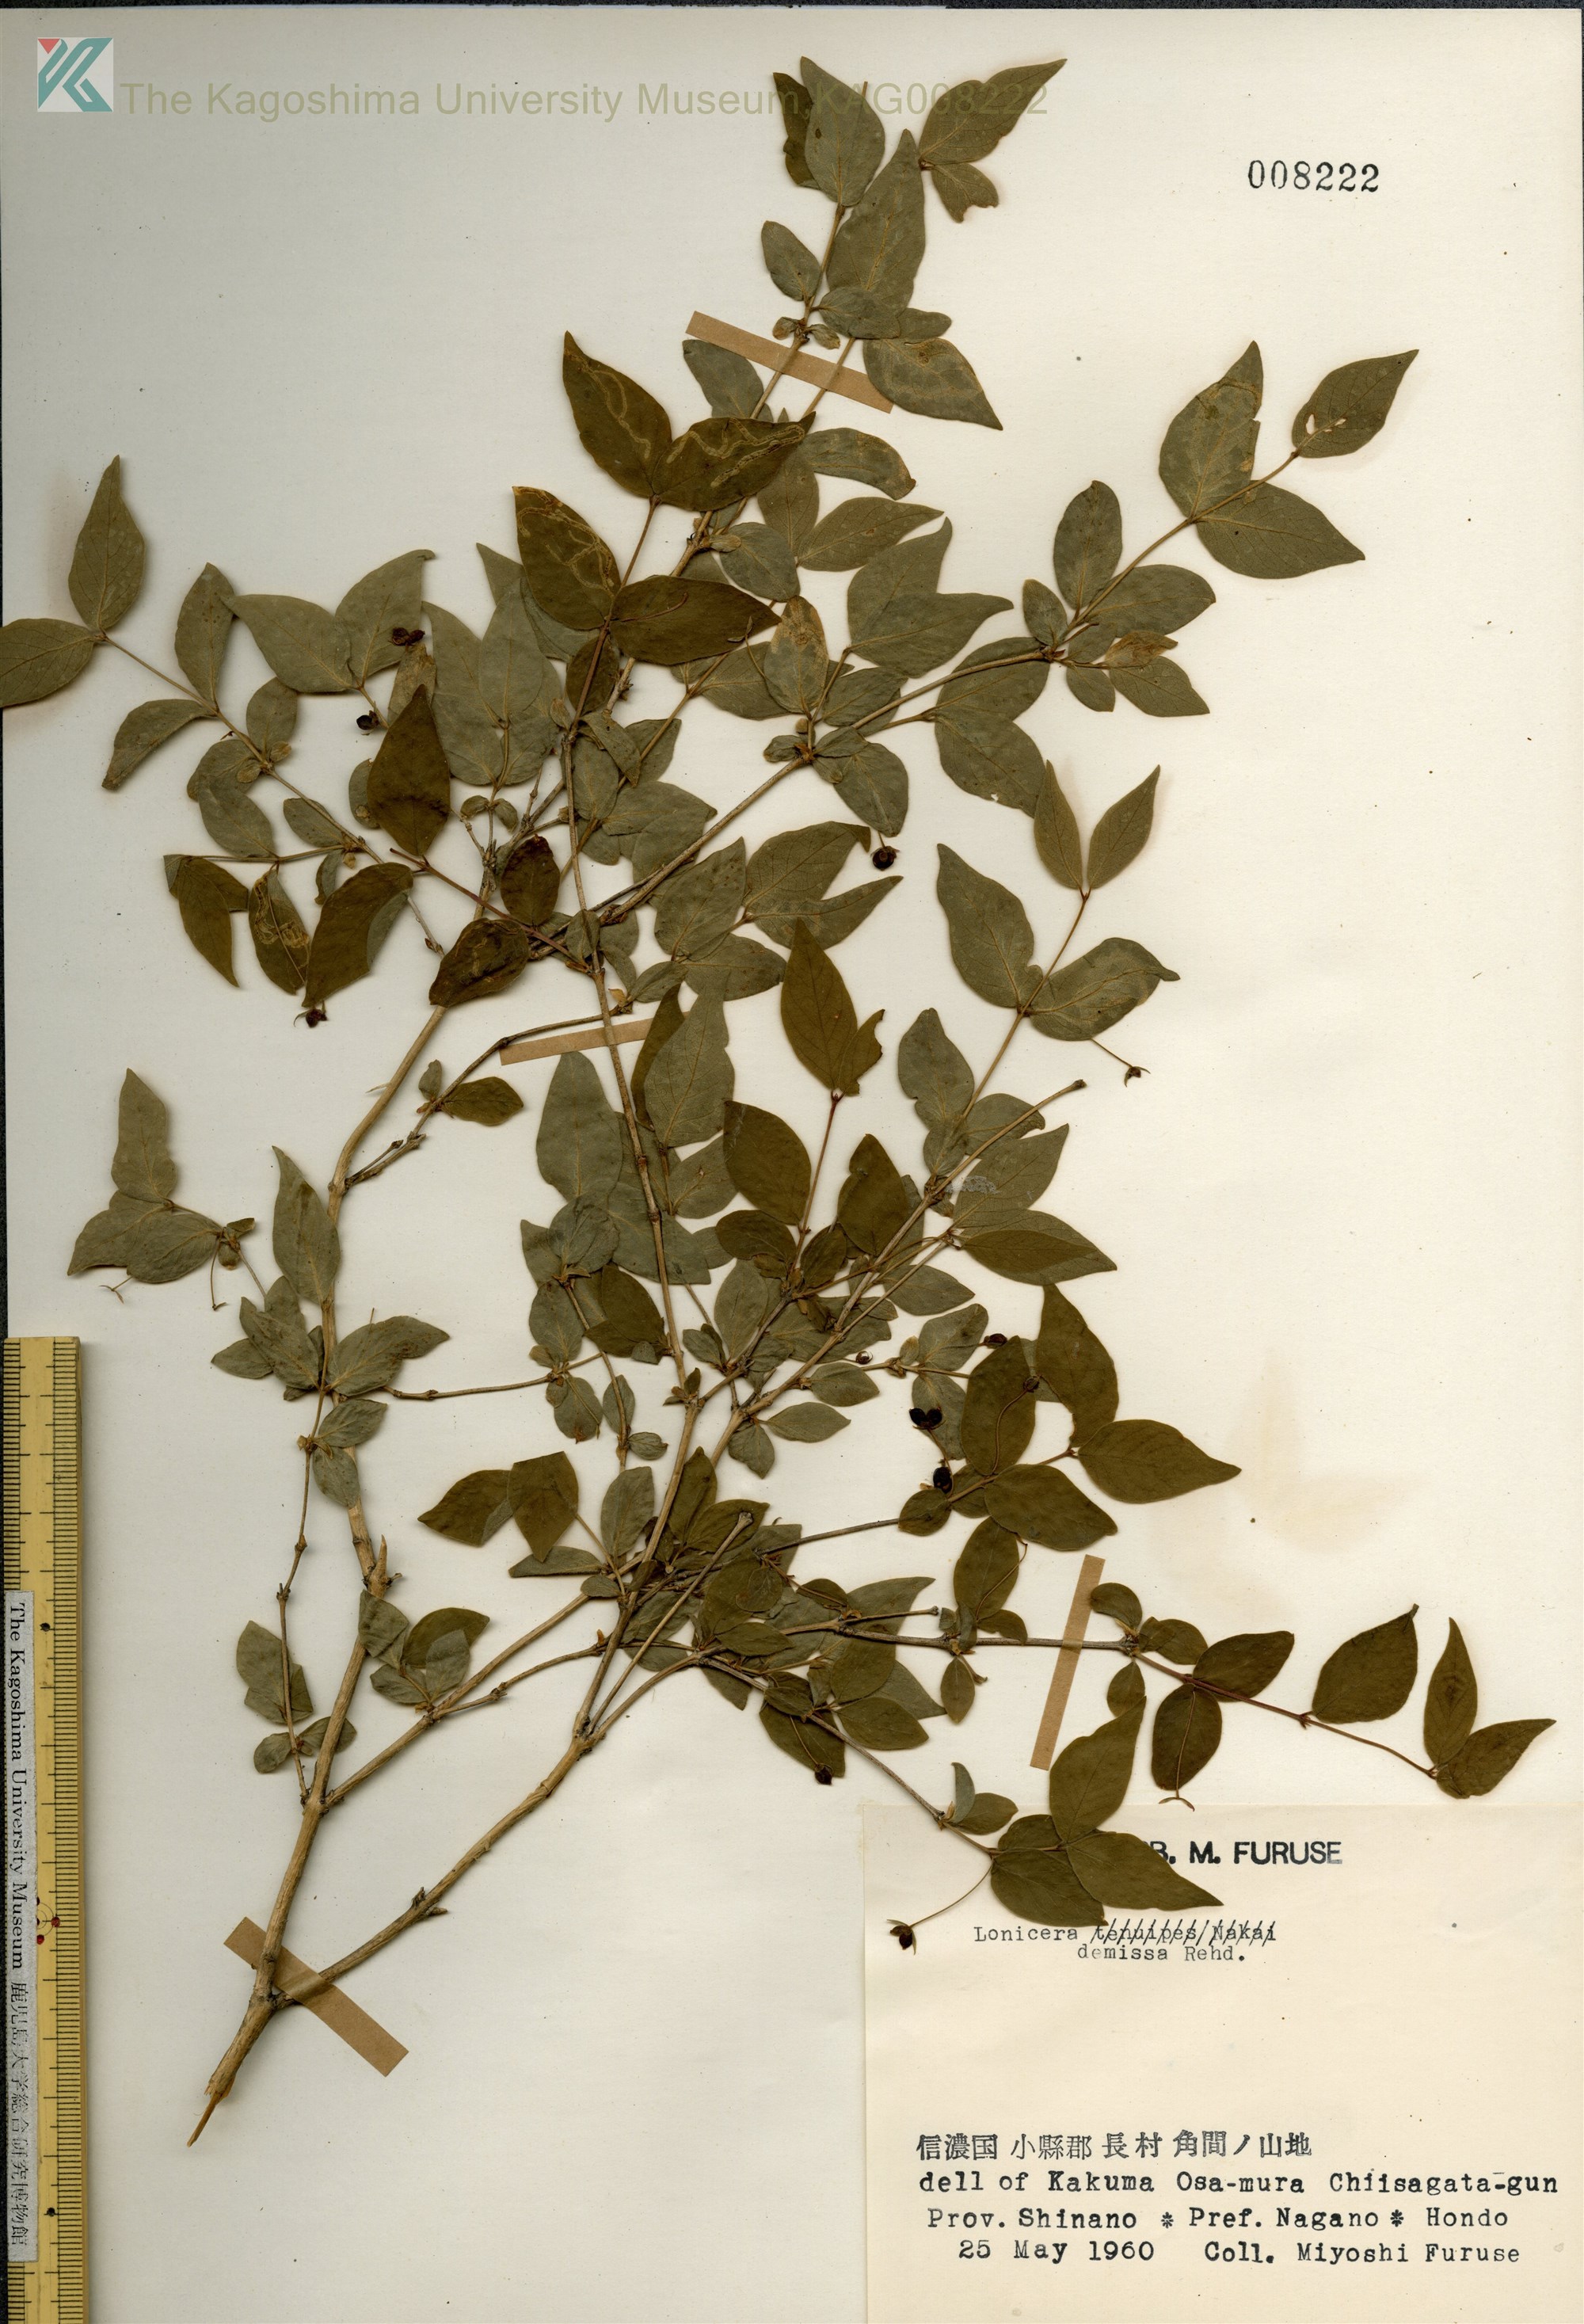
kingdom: Plantae
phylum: Tracheophyta
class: Magnoliopsida
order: Dipsacales
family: Caprifoliaceae
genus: Lonicera
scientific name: Lonicera ramosissima
